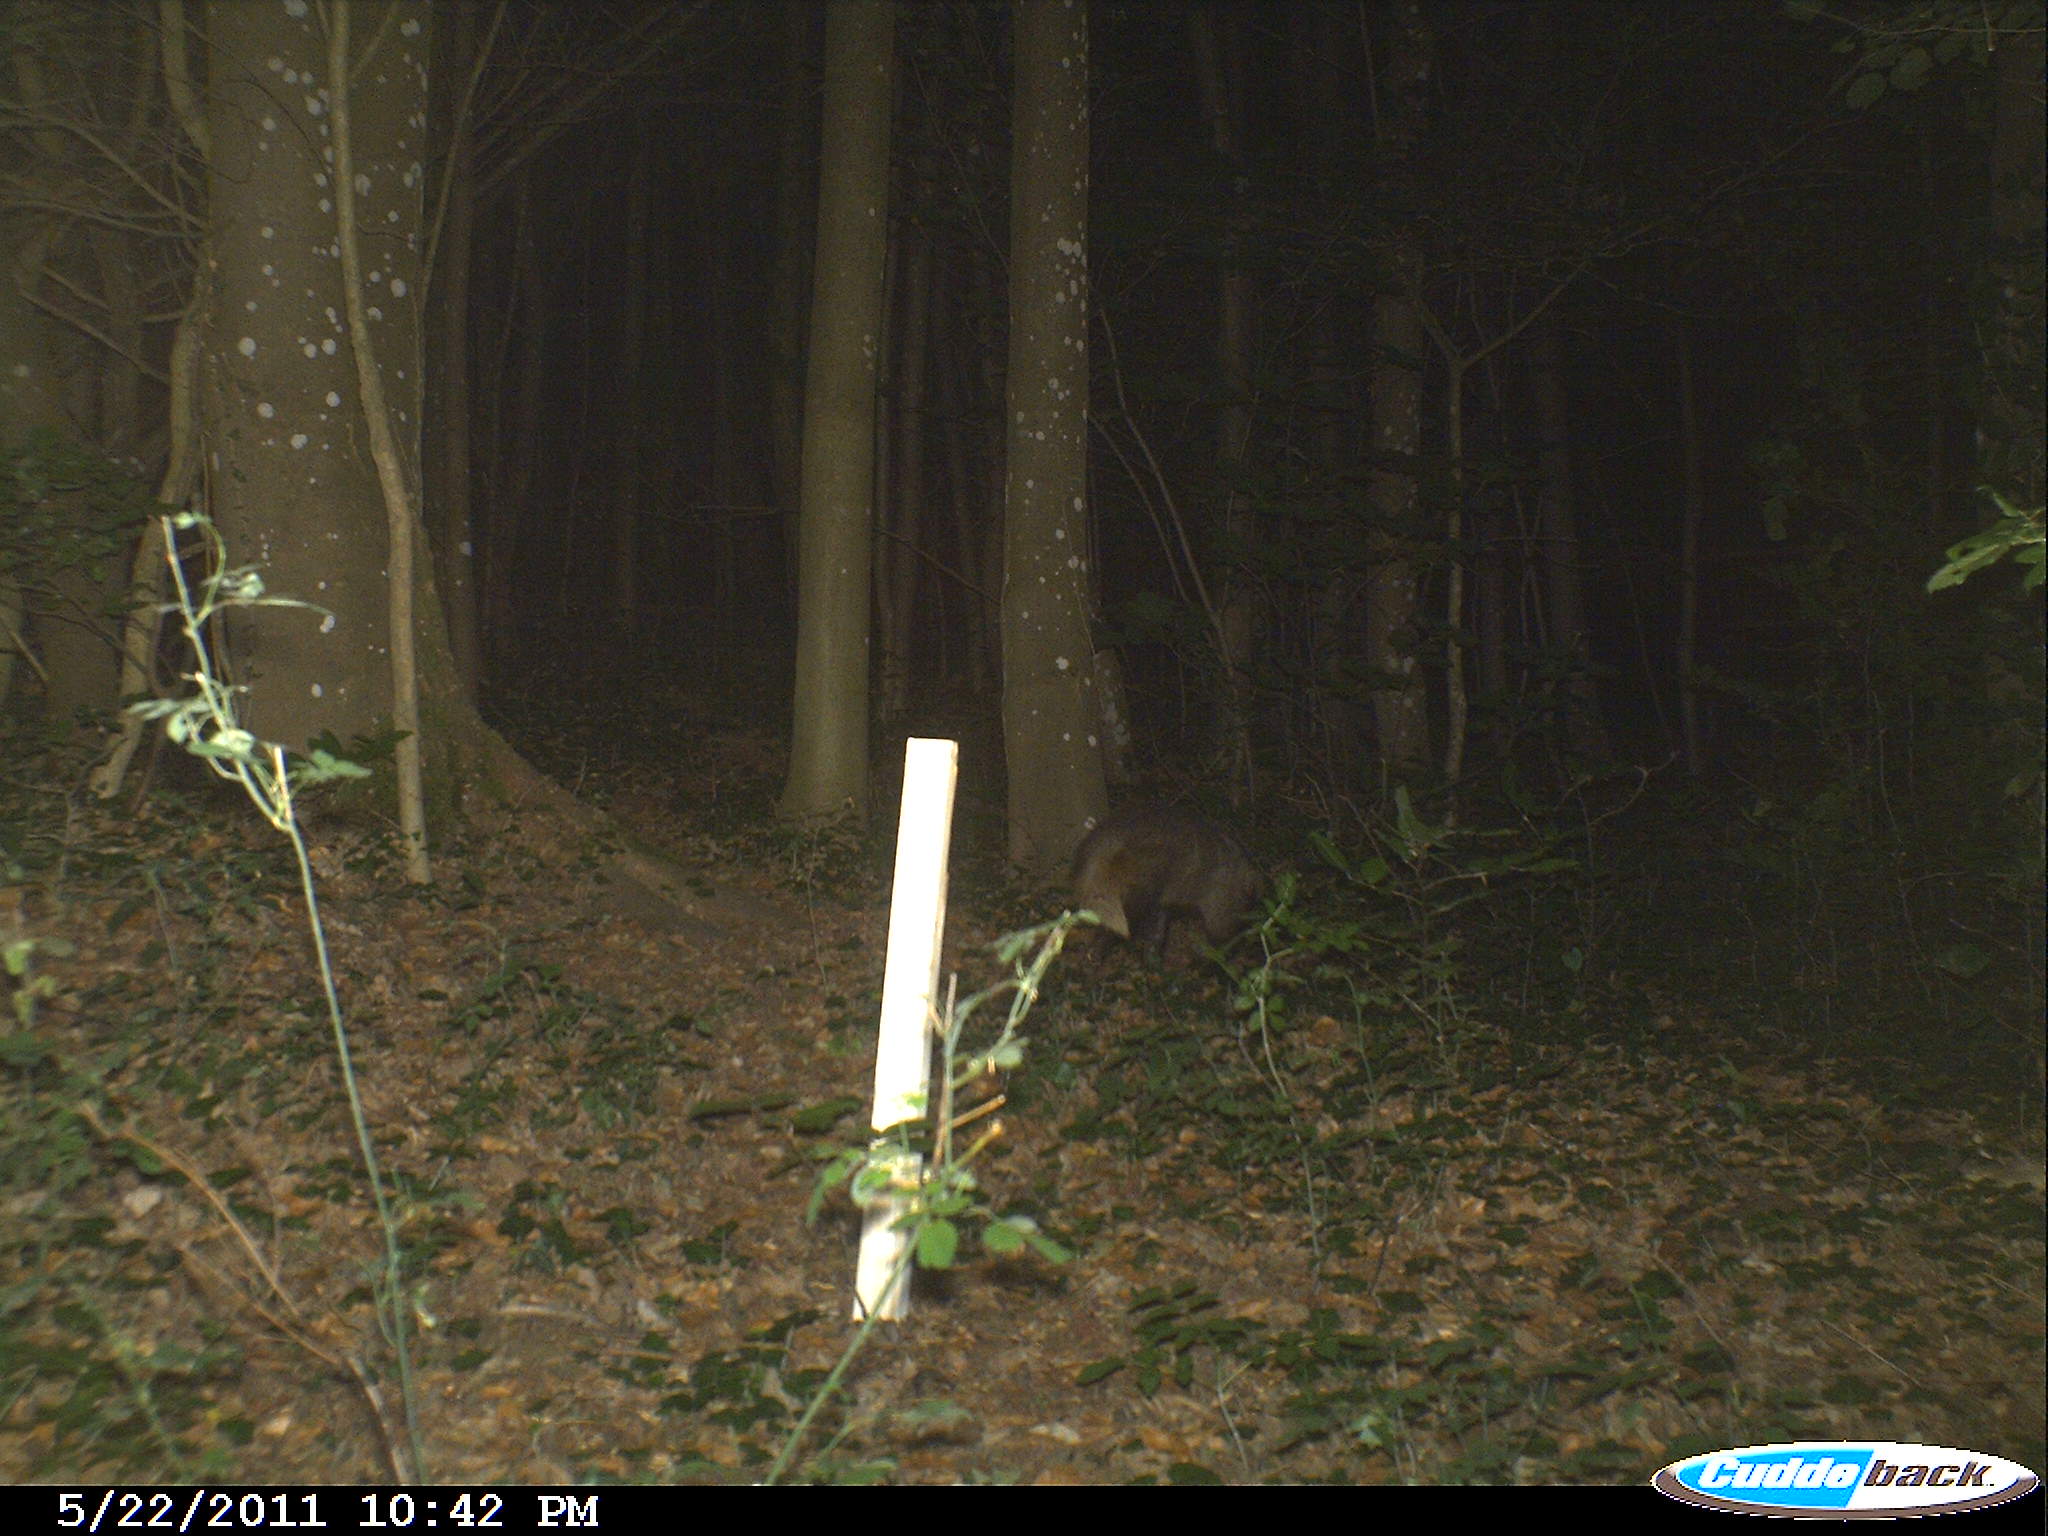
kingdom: Animalia
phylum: Chordata
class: Mammalia
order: Carnivora
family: Canidae
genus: Vulpes
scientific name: Vulpes vulpes
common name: Red fox
